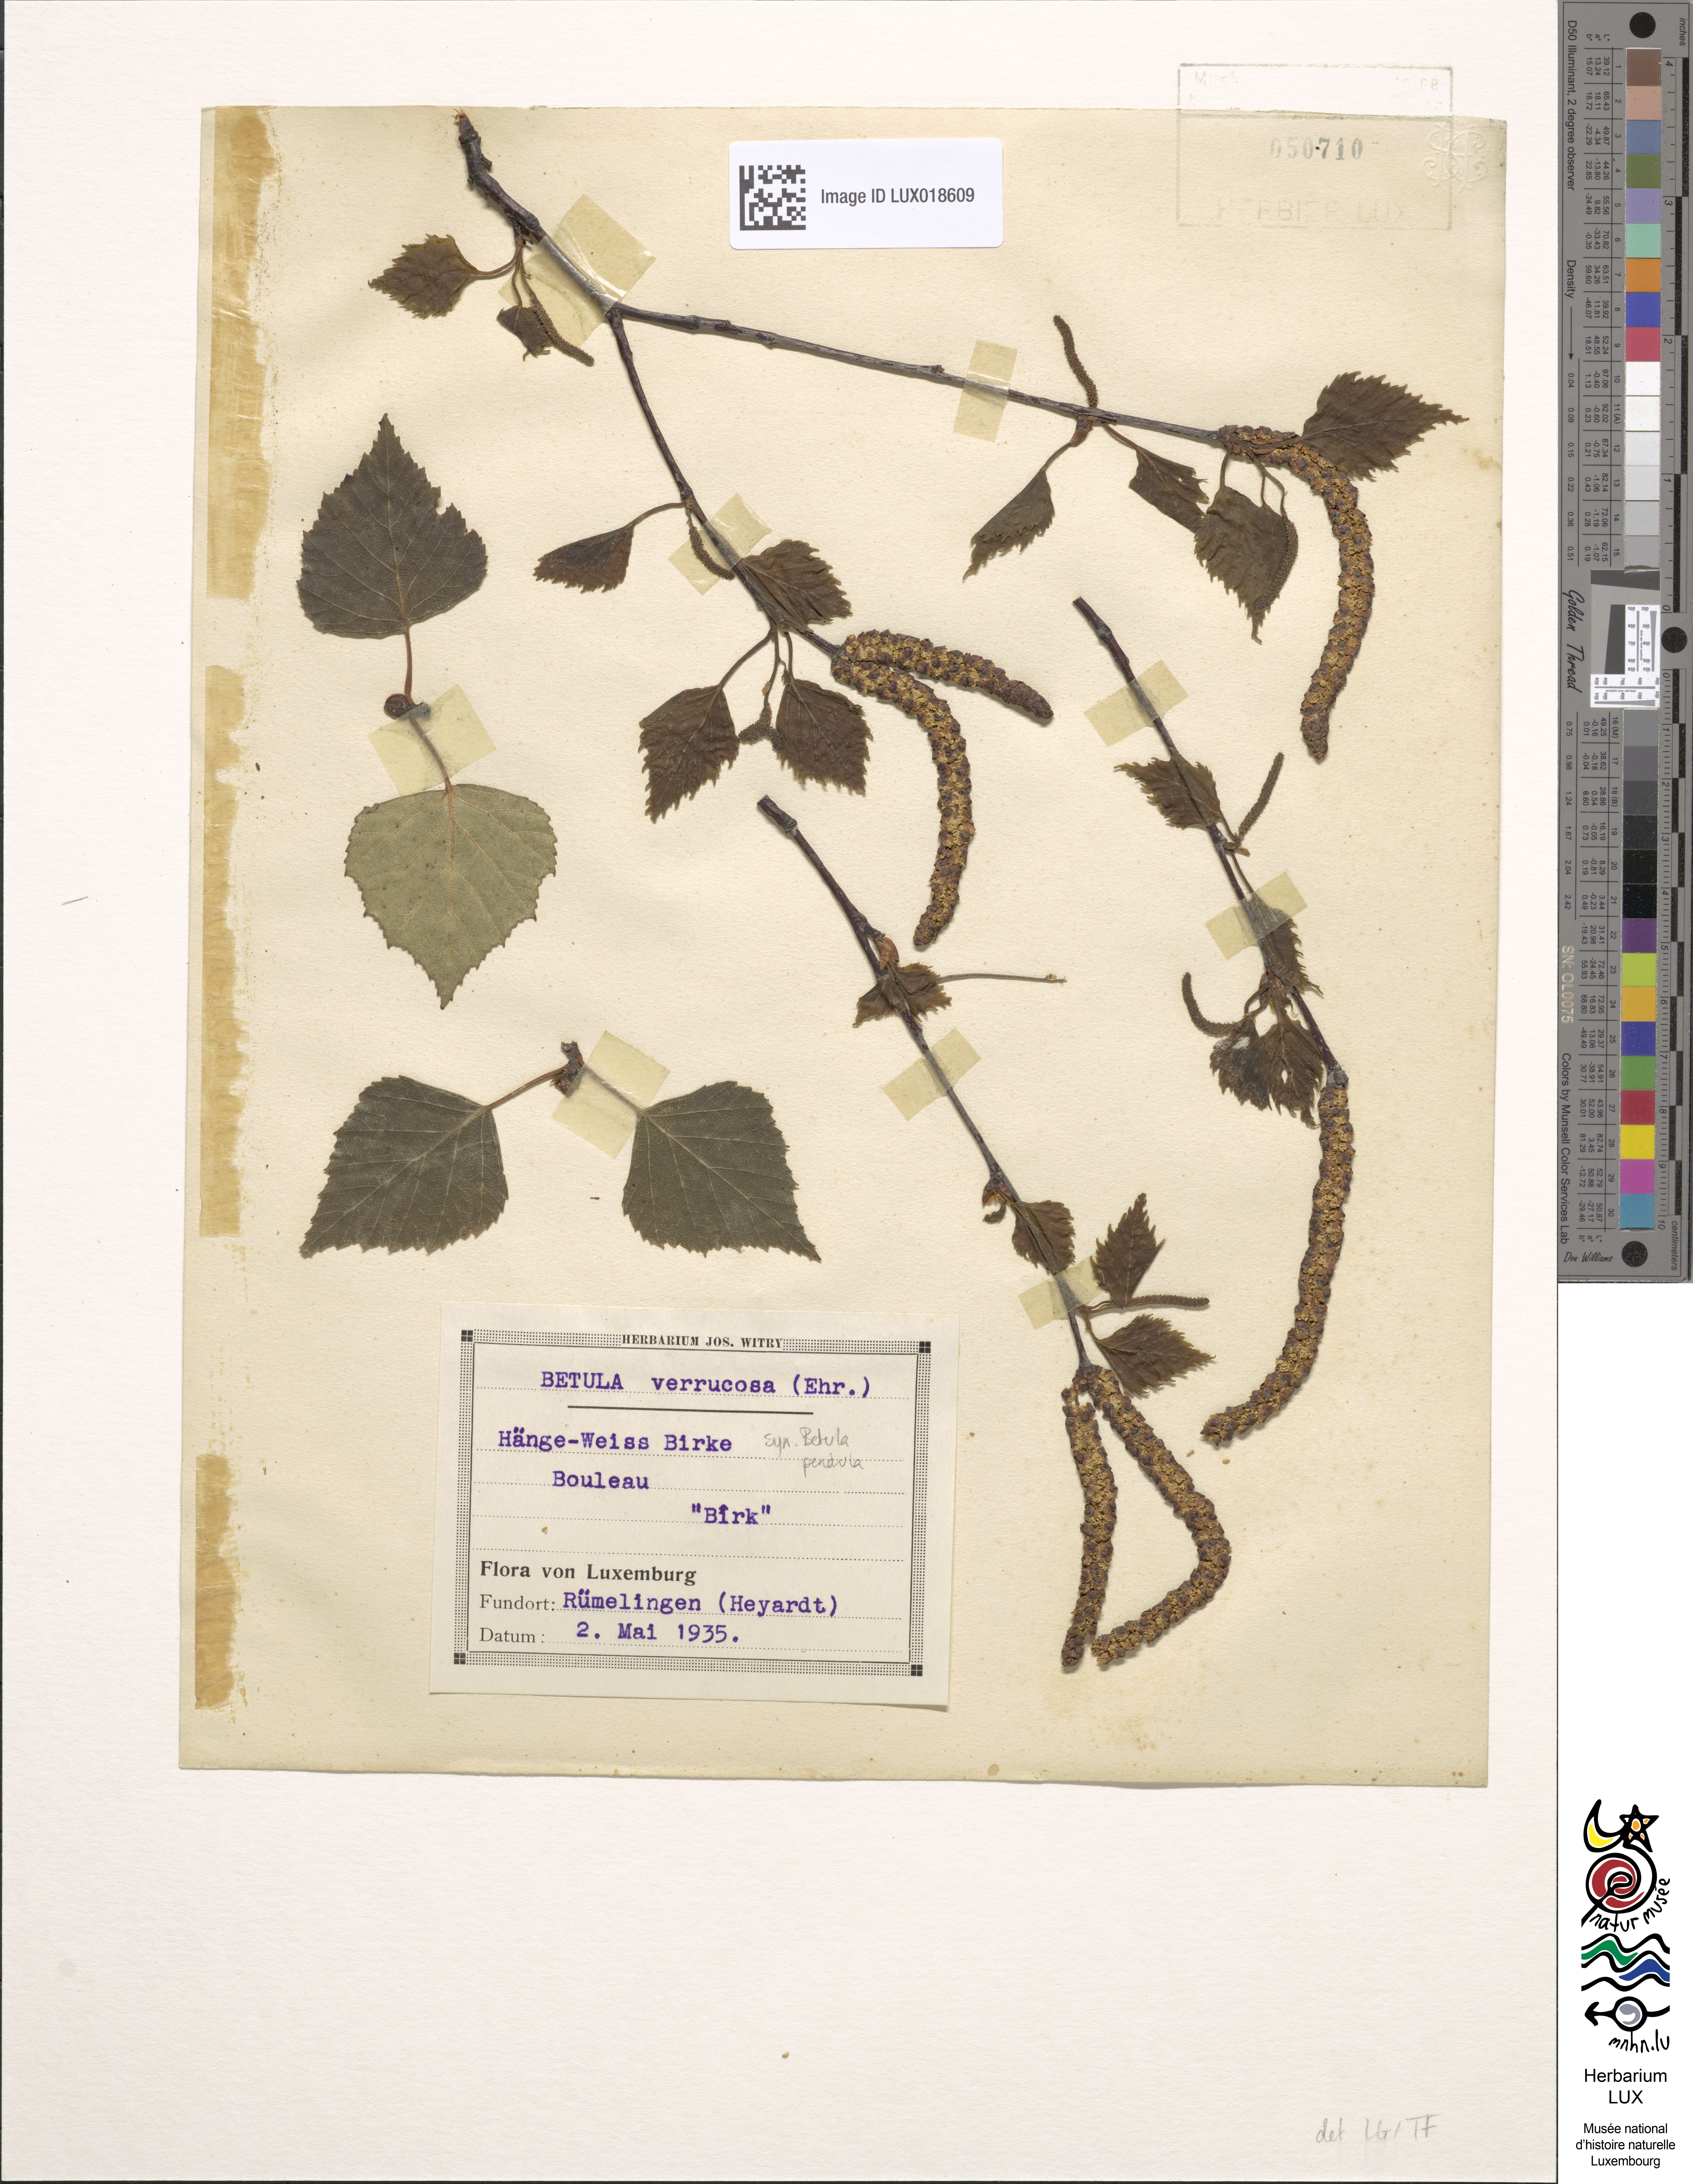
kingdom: Plantae
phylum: Tracheophyta
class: Magnoliopsida
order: Fagales
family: Betulaceae
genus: Betula
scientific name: Betula pendula
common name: Silver birch
